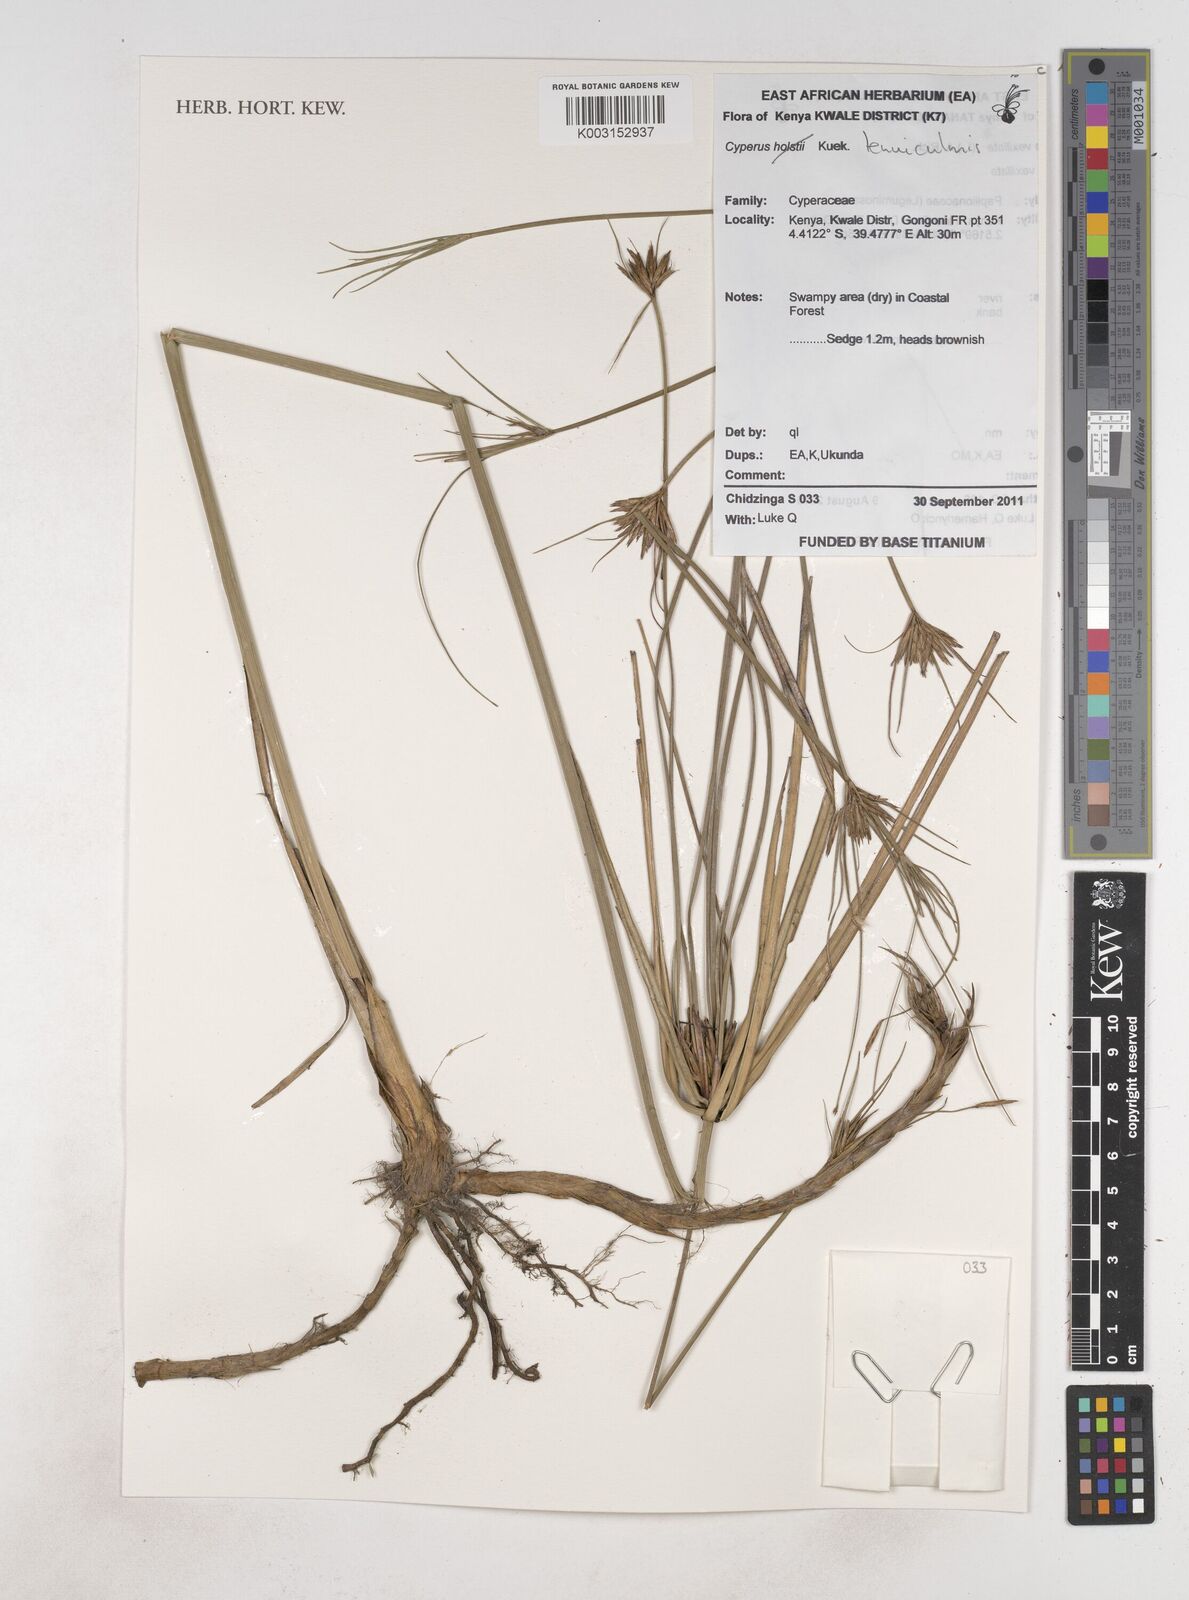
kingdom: Plantae
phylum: Tracheophyta
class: Liliopsida
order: Poales
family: Cyperaceae
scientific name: Cyperaceae
